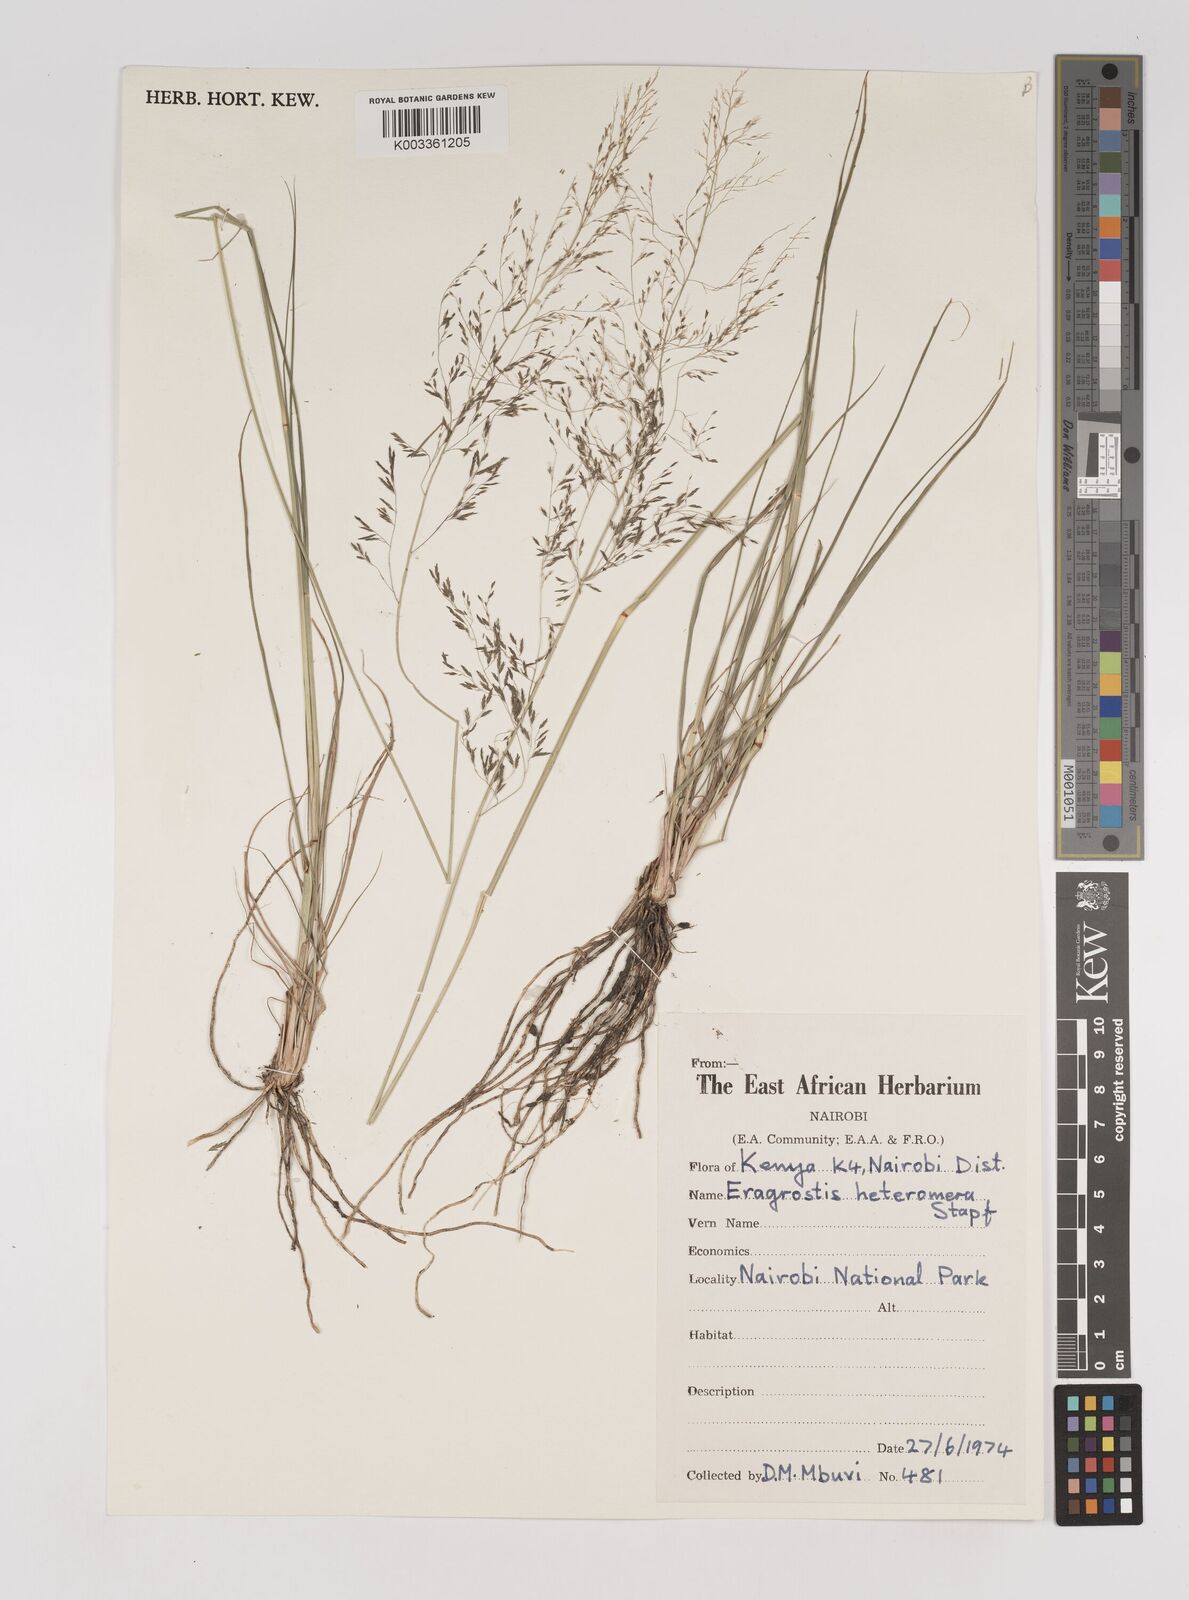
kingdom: Plantae
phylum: Tracheophyta
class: Liliopsida
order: Poales
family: Poaceae
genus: Eragrostis
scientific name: Eragrostis heteromera
